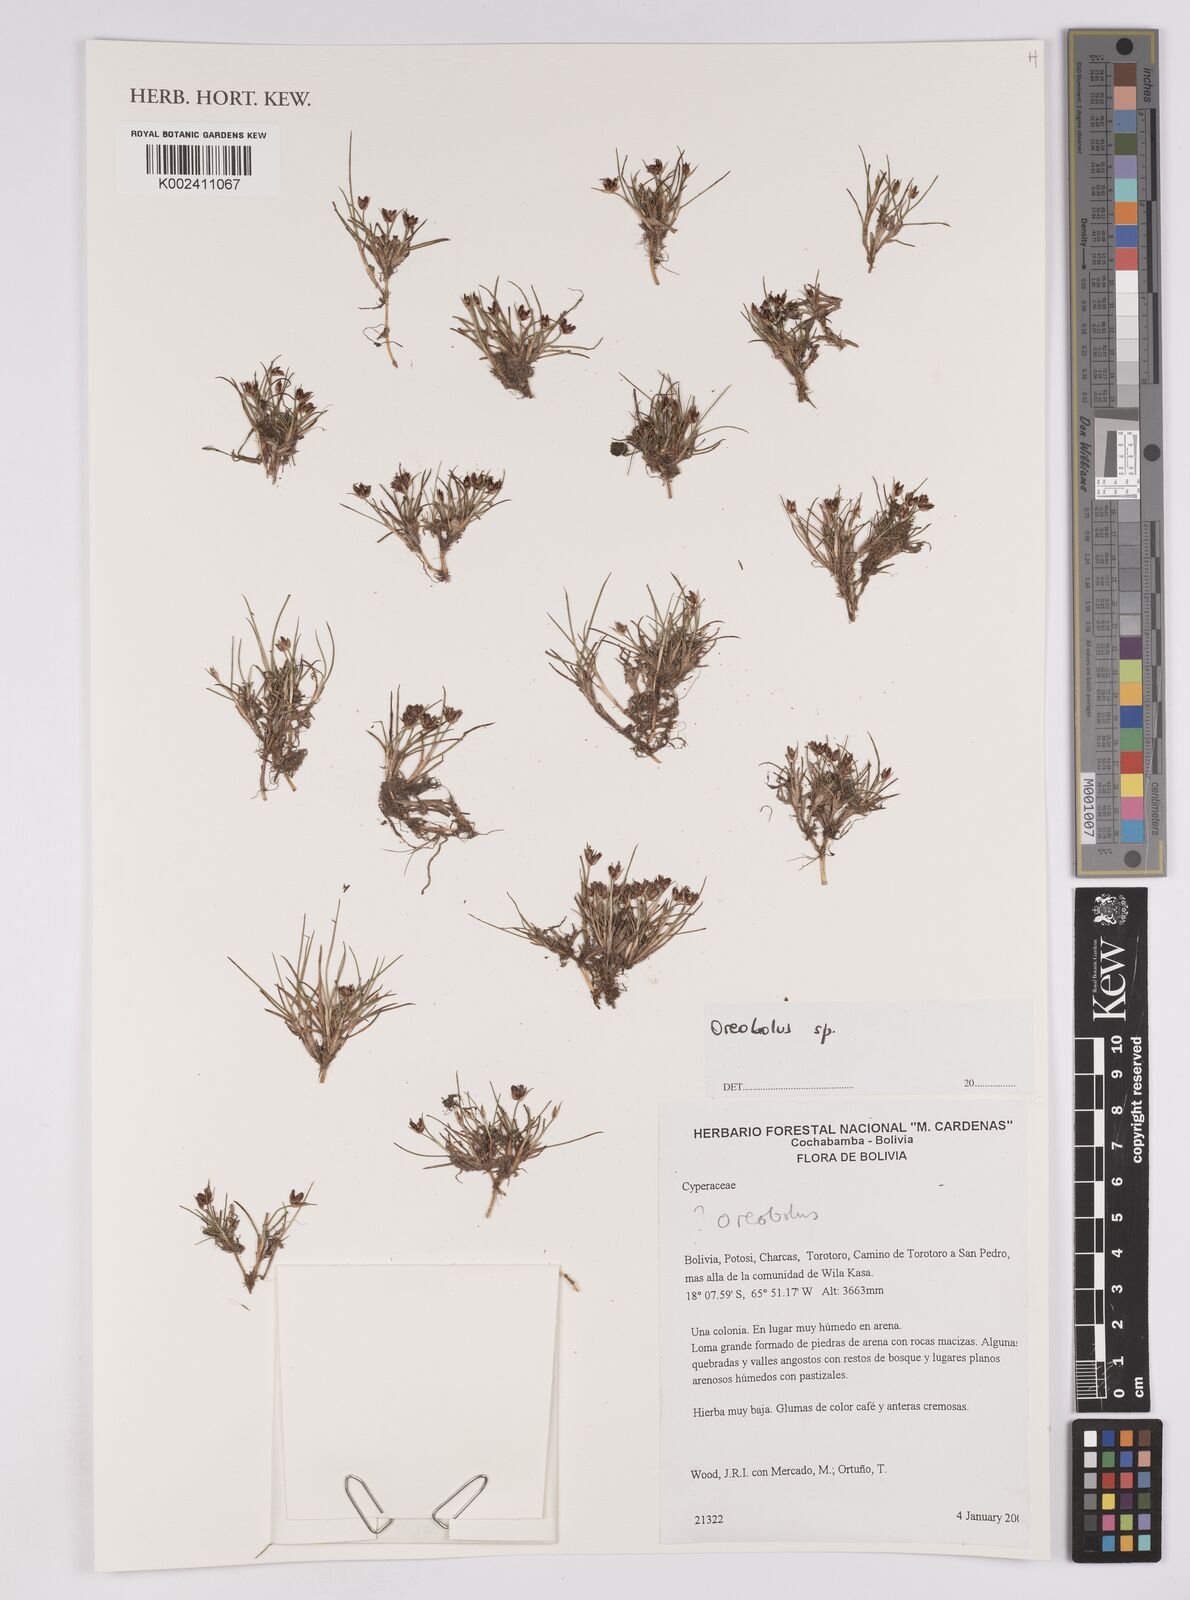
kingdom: Plantae
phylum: Tracheophyta
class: Liliopsida
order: Poales
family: Cyperaceae
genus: Oreobolus
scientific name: Oreobolus
